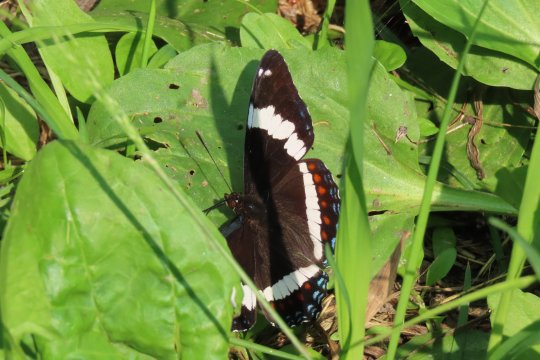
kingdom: Animalia
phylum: Arthropoda
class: Insecta
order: Lepidoptera
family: Nymphalidae
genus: Limenitis
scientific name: Limenitis arthemis
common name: Red-spotted Admiral
